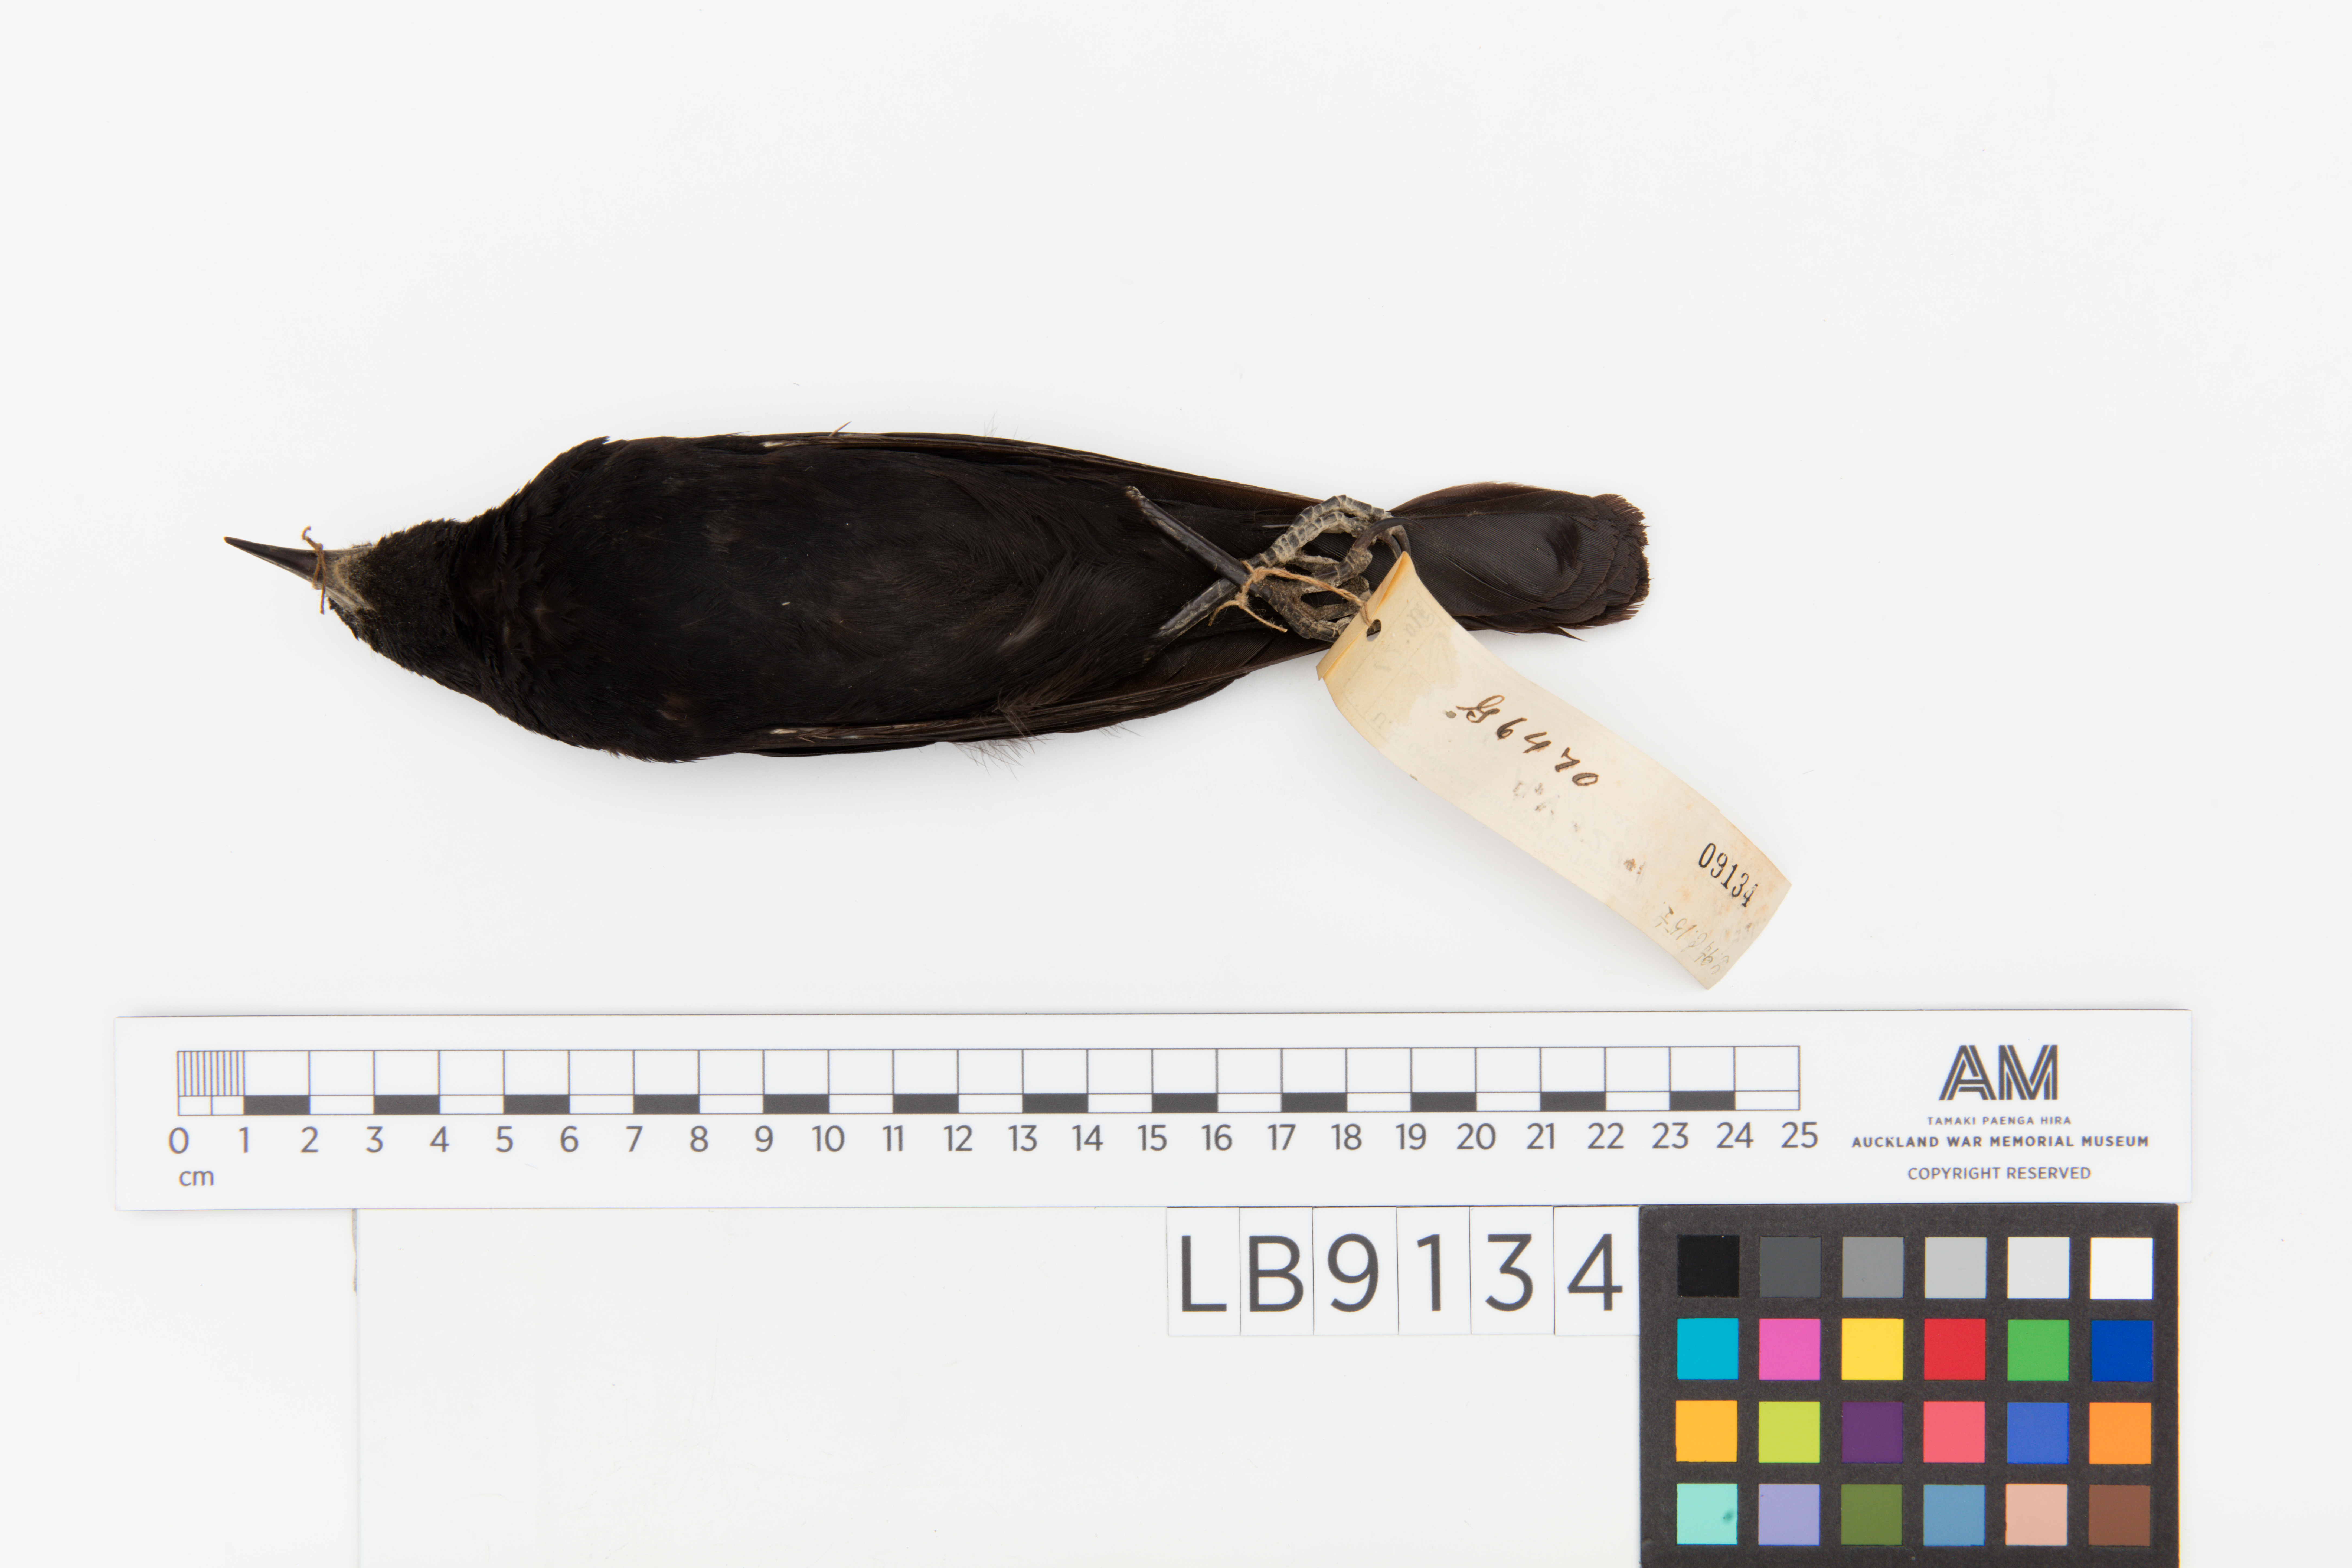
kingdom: Animalia
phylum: Chordata
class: Aves
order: Passeriformes
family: Icteridae
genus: Agelaius
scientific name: Agelaius phoeniceus
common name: Red-winged blackbird
